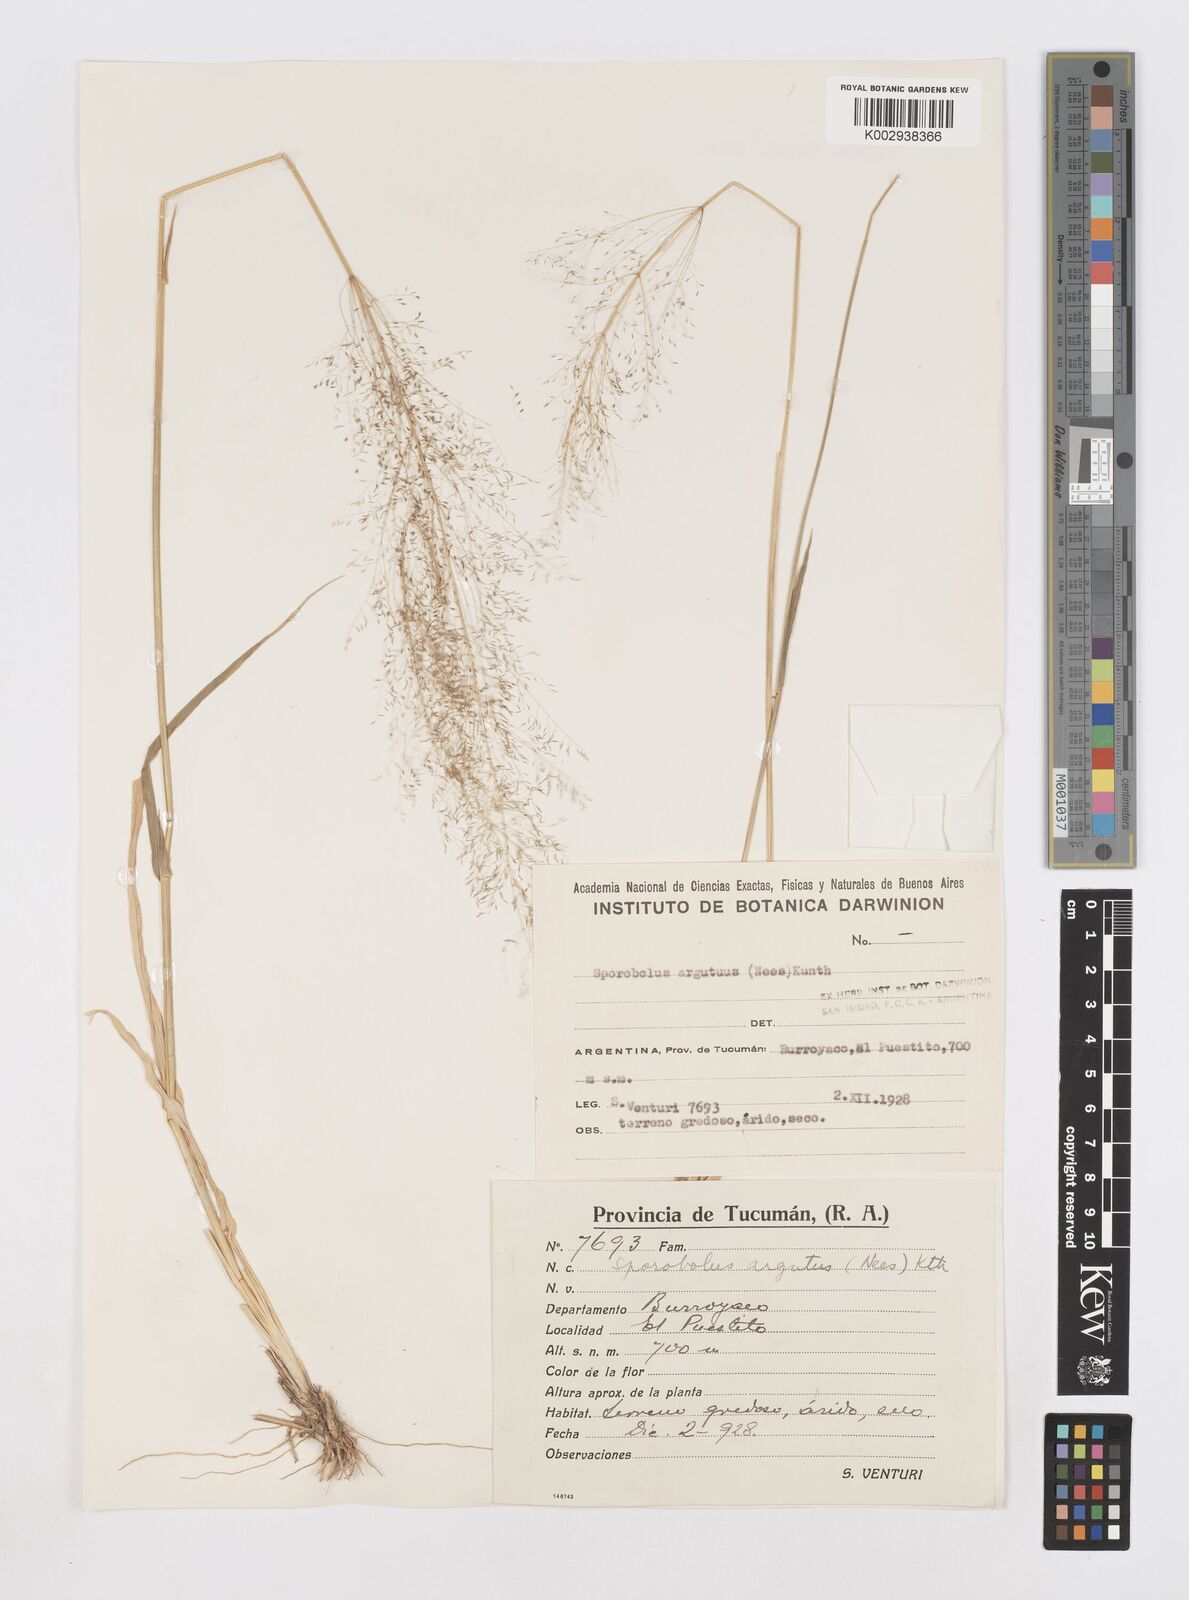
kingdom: Plantae
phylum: Tracheophyta
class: Liliopsida
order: Poales
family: Poaceae
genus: Sporobolus
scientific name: Sporobolus pyramidatus
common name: Whorled dropseed
